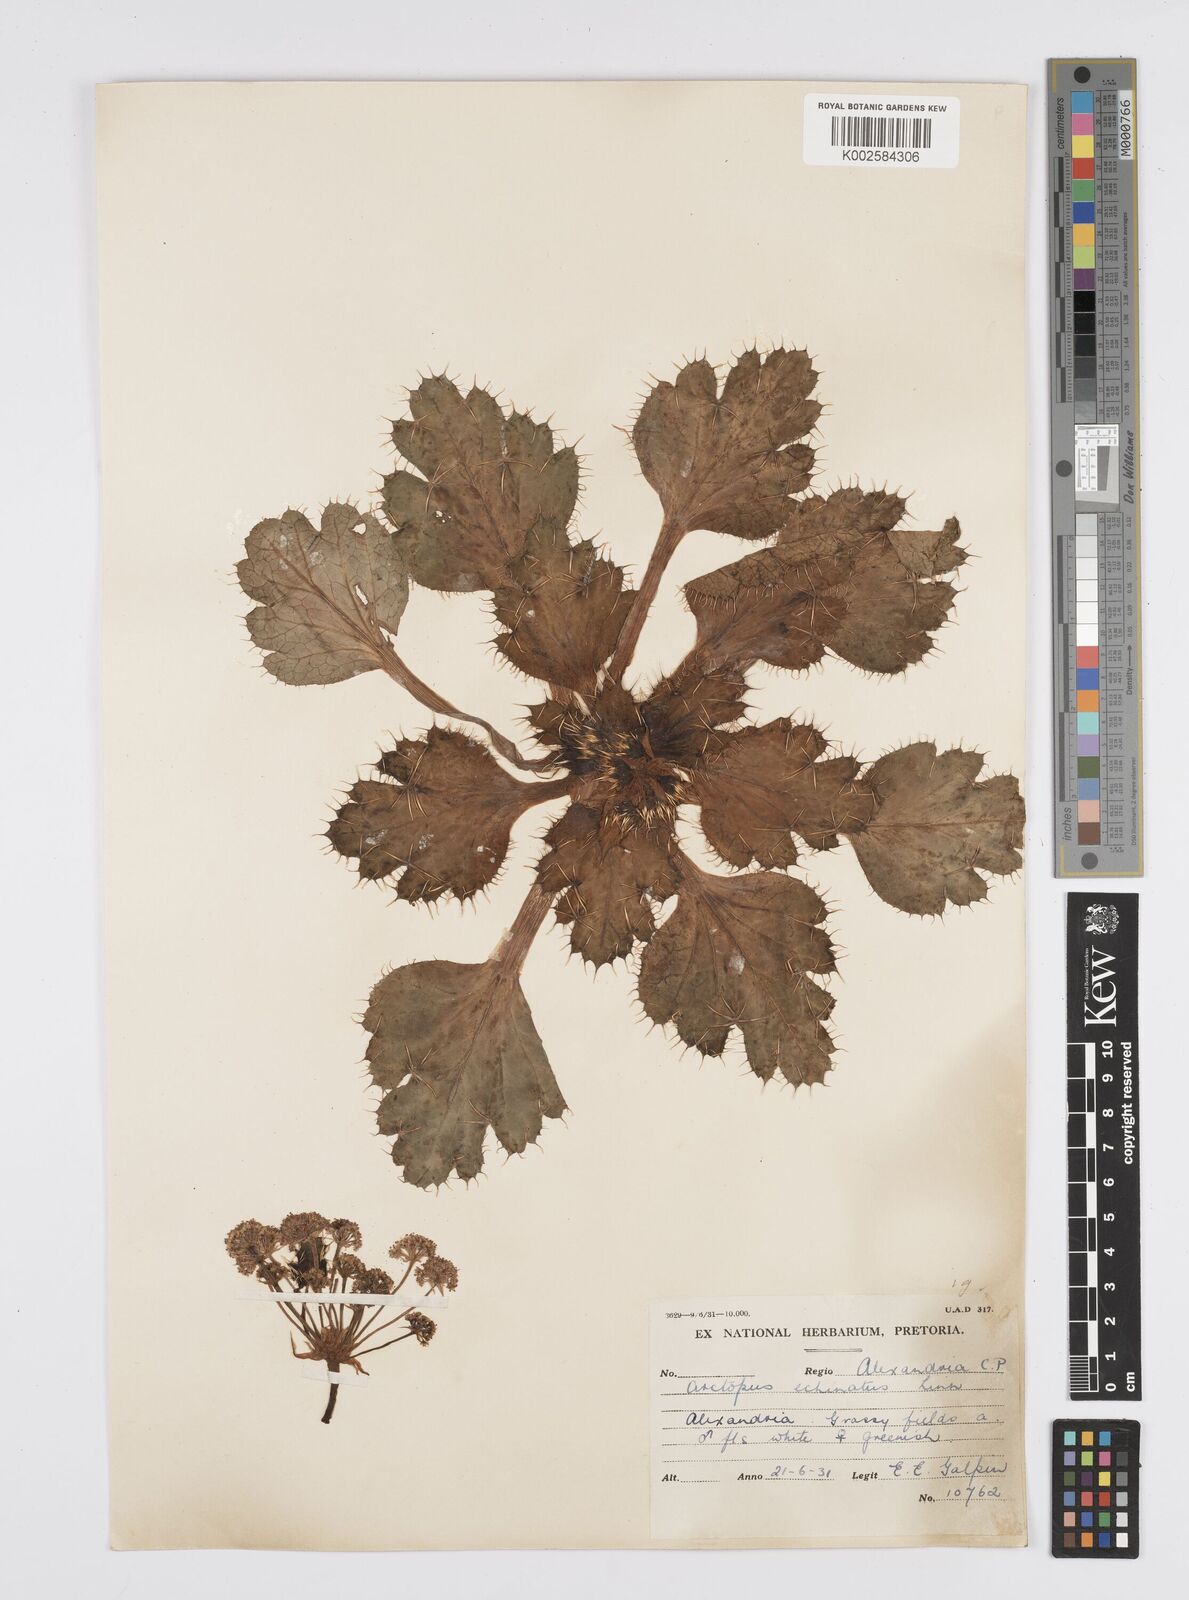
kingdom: Plantae
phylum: Tracheophyta
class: Magnoliopsida
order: Apiales
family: Apiaceae
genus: Arctopus
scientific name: Arctopus echinatus
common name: Platdoring
